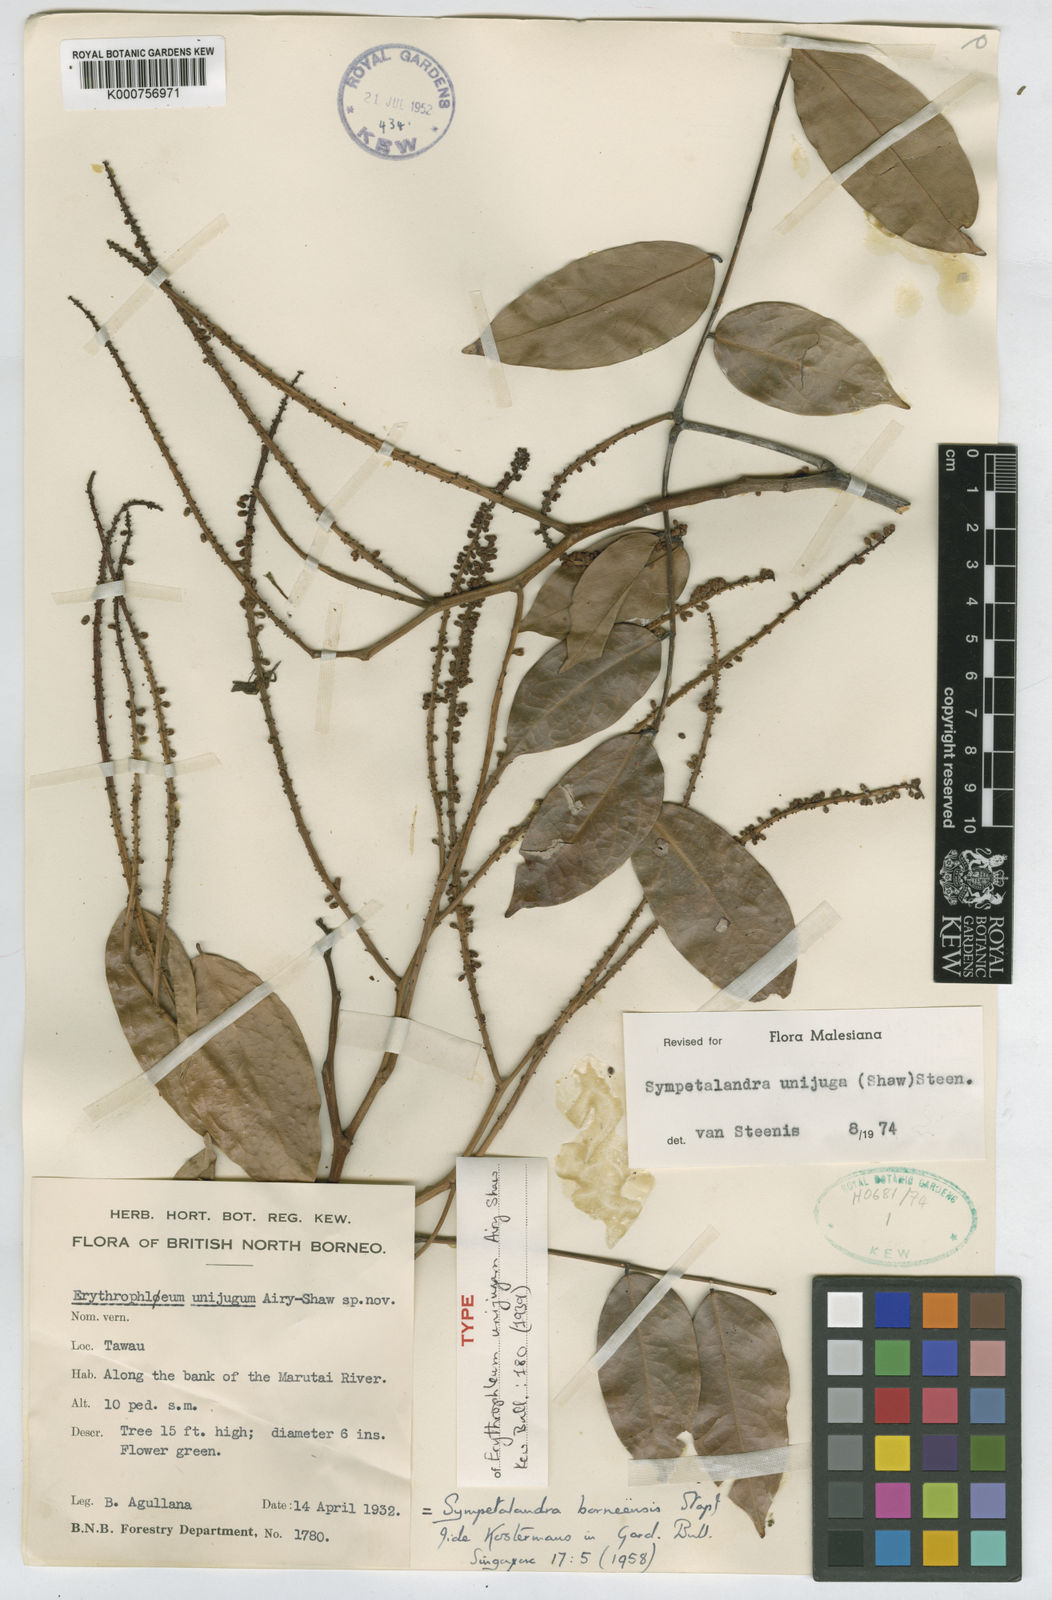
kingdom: Plantae
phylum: Tracheophyta
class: Magnoliopsida
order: Fabales
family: Fabaceae
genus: Sympetalandra
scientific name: Sympetalandra unijuga
